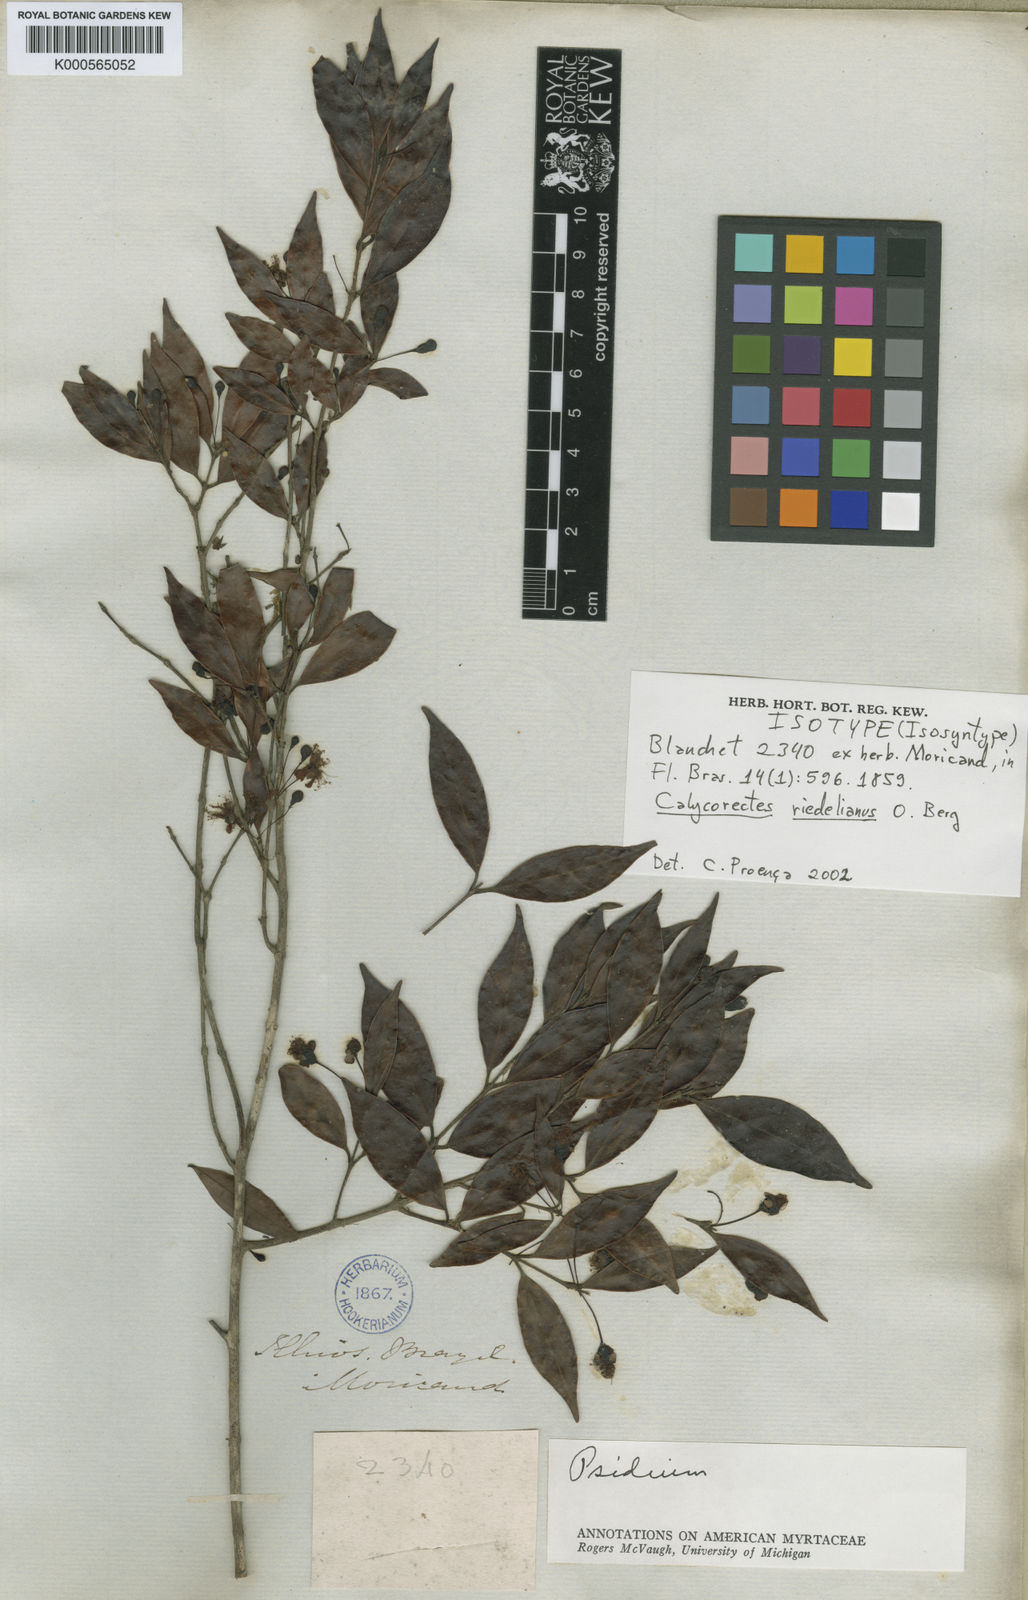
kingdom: Plantae
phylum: Tracheophyta
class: Magnoliopsida
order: Myrtales
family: Myrtaceae
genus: Eugenia
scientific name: Eugenia subterminalis
